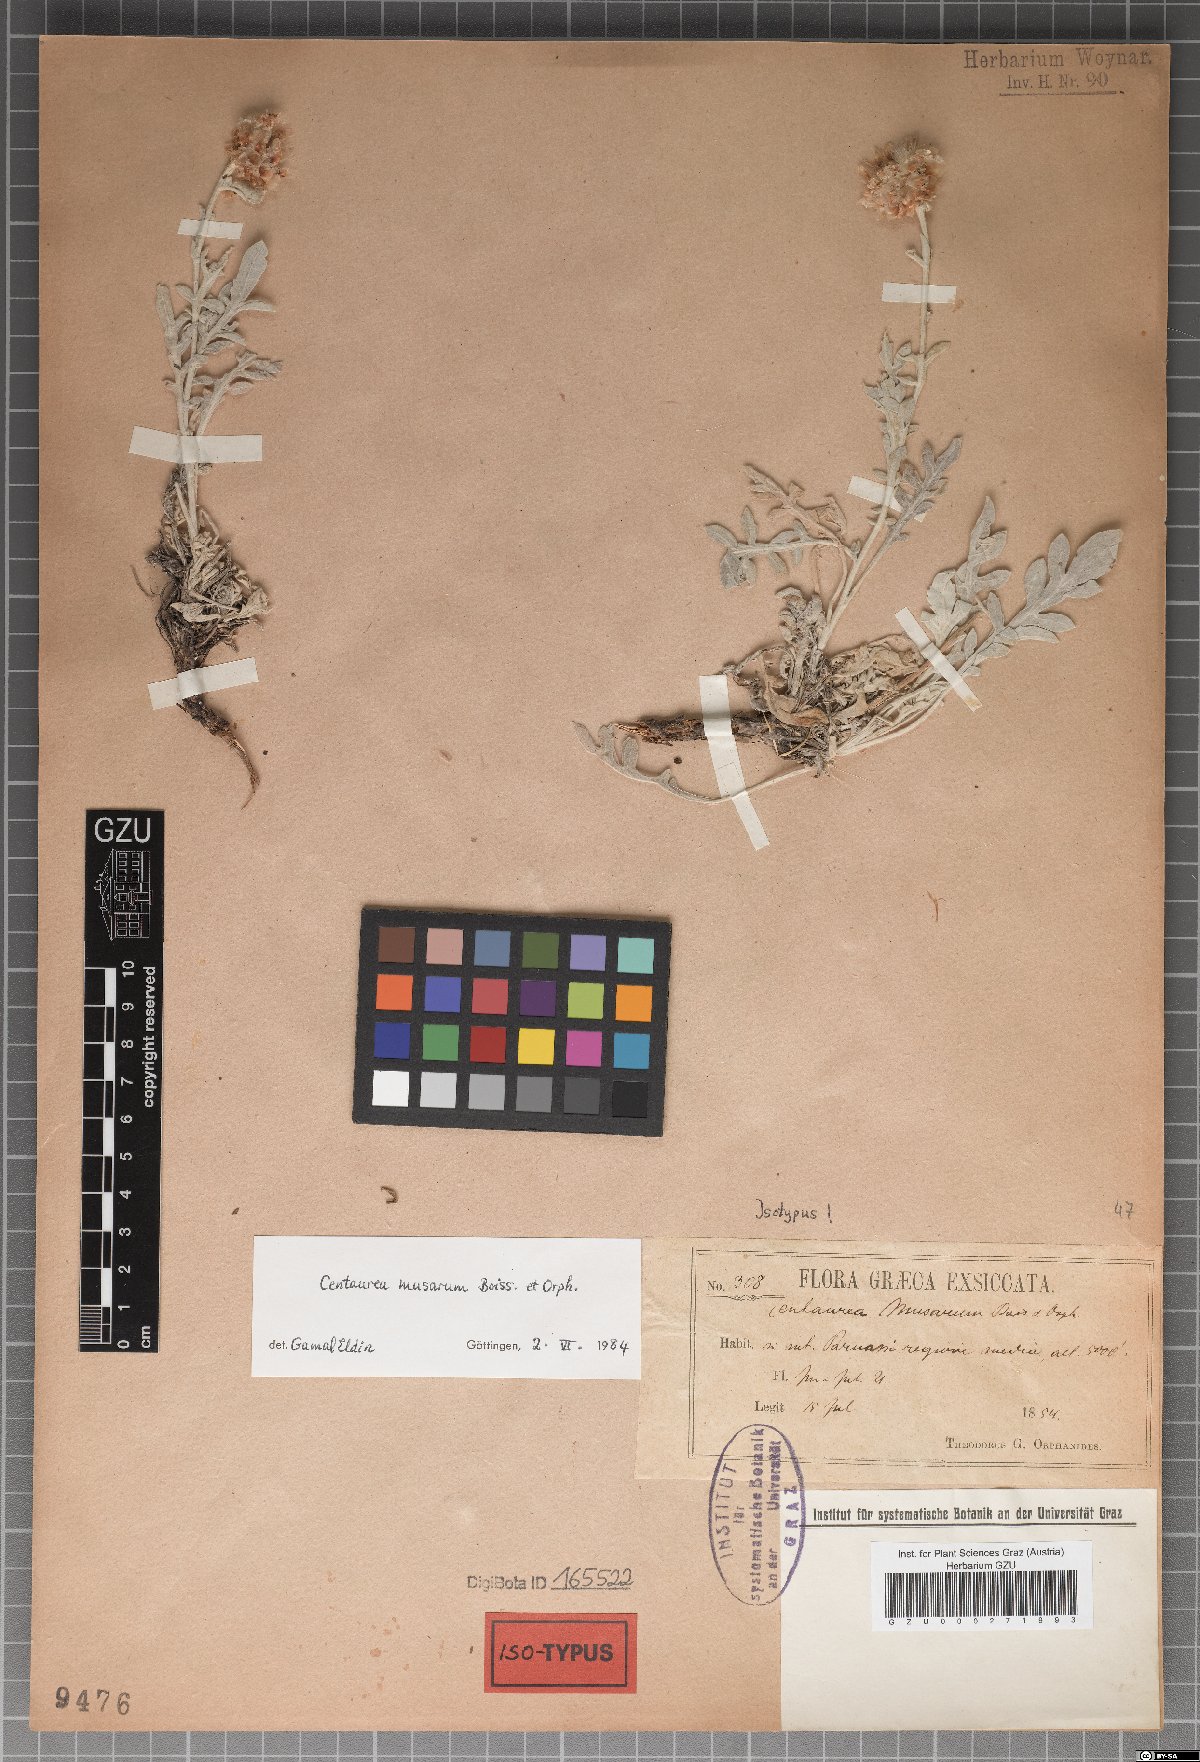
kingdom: Plantae
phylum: Tracheophyta
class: Magnoliopsida
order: Asterales
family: Asteraceae
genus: Centaurea
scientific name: Centaurea musarum
